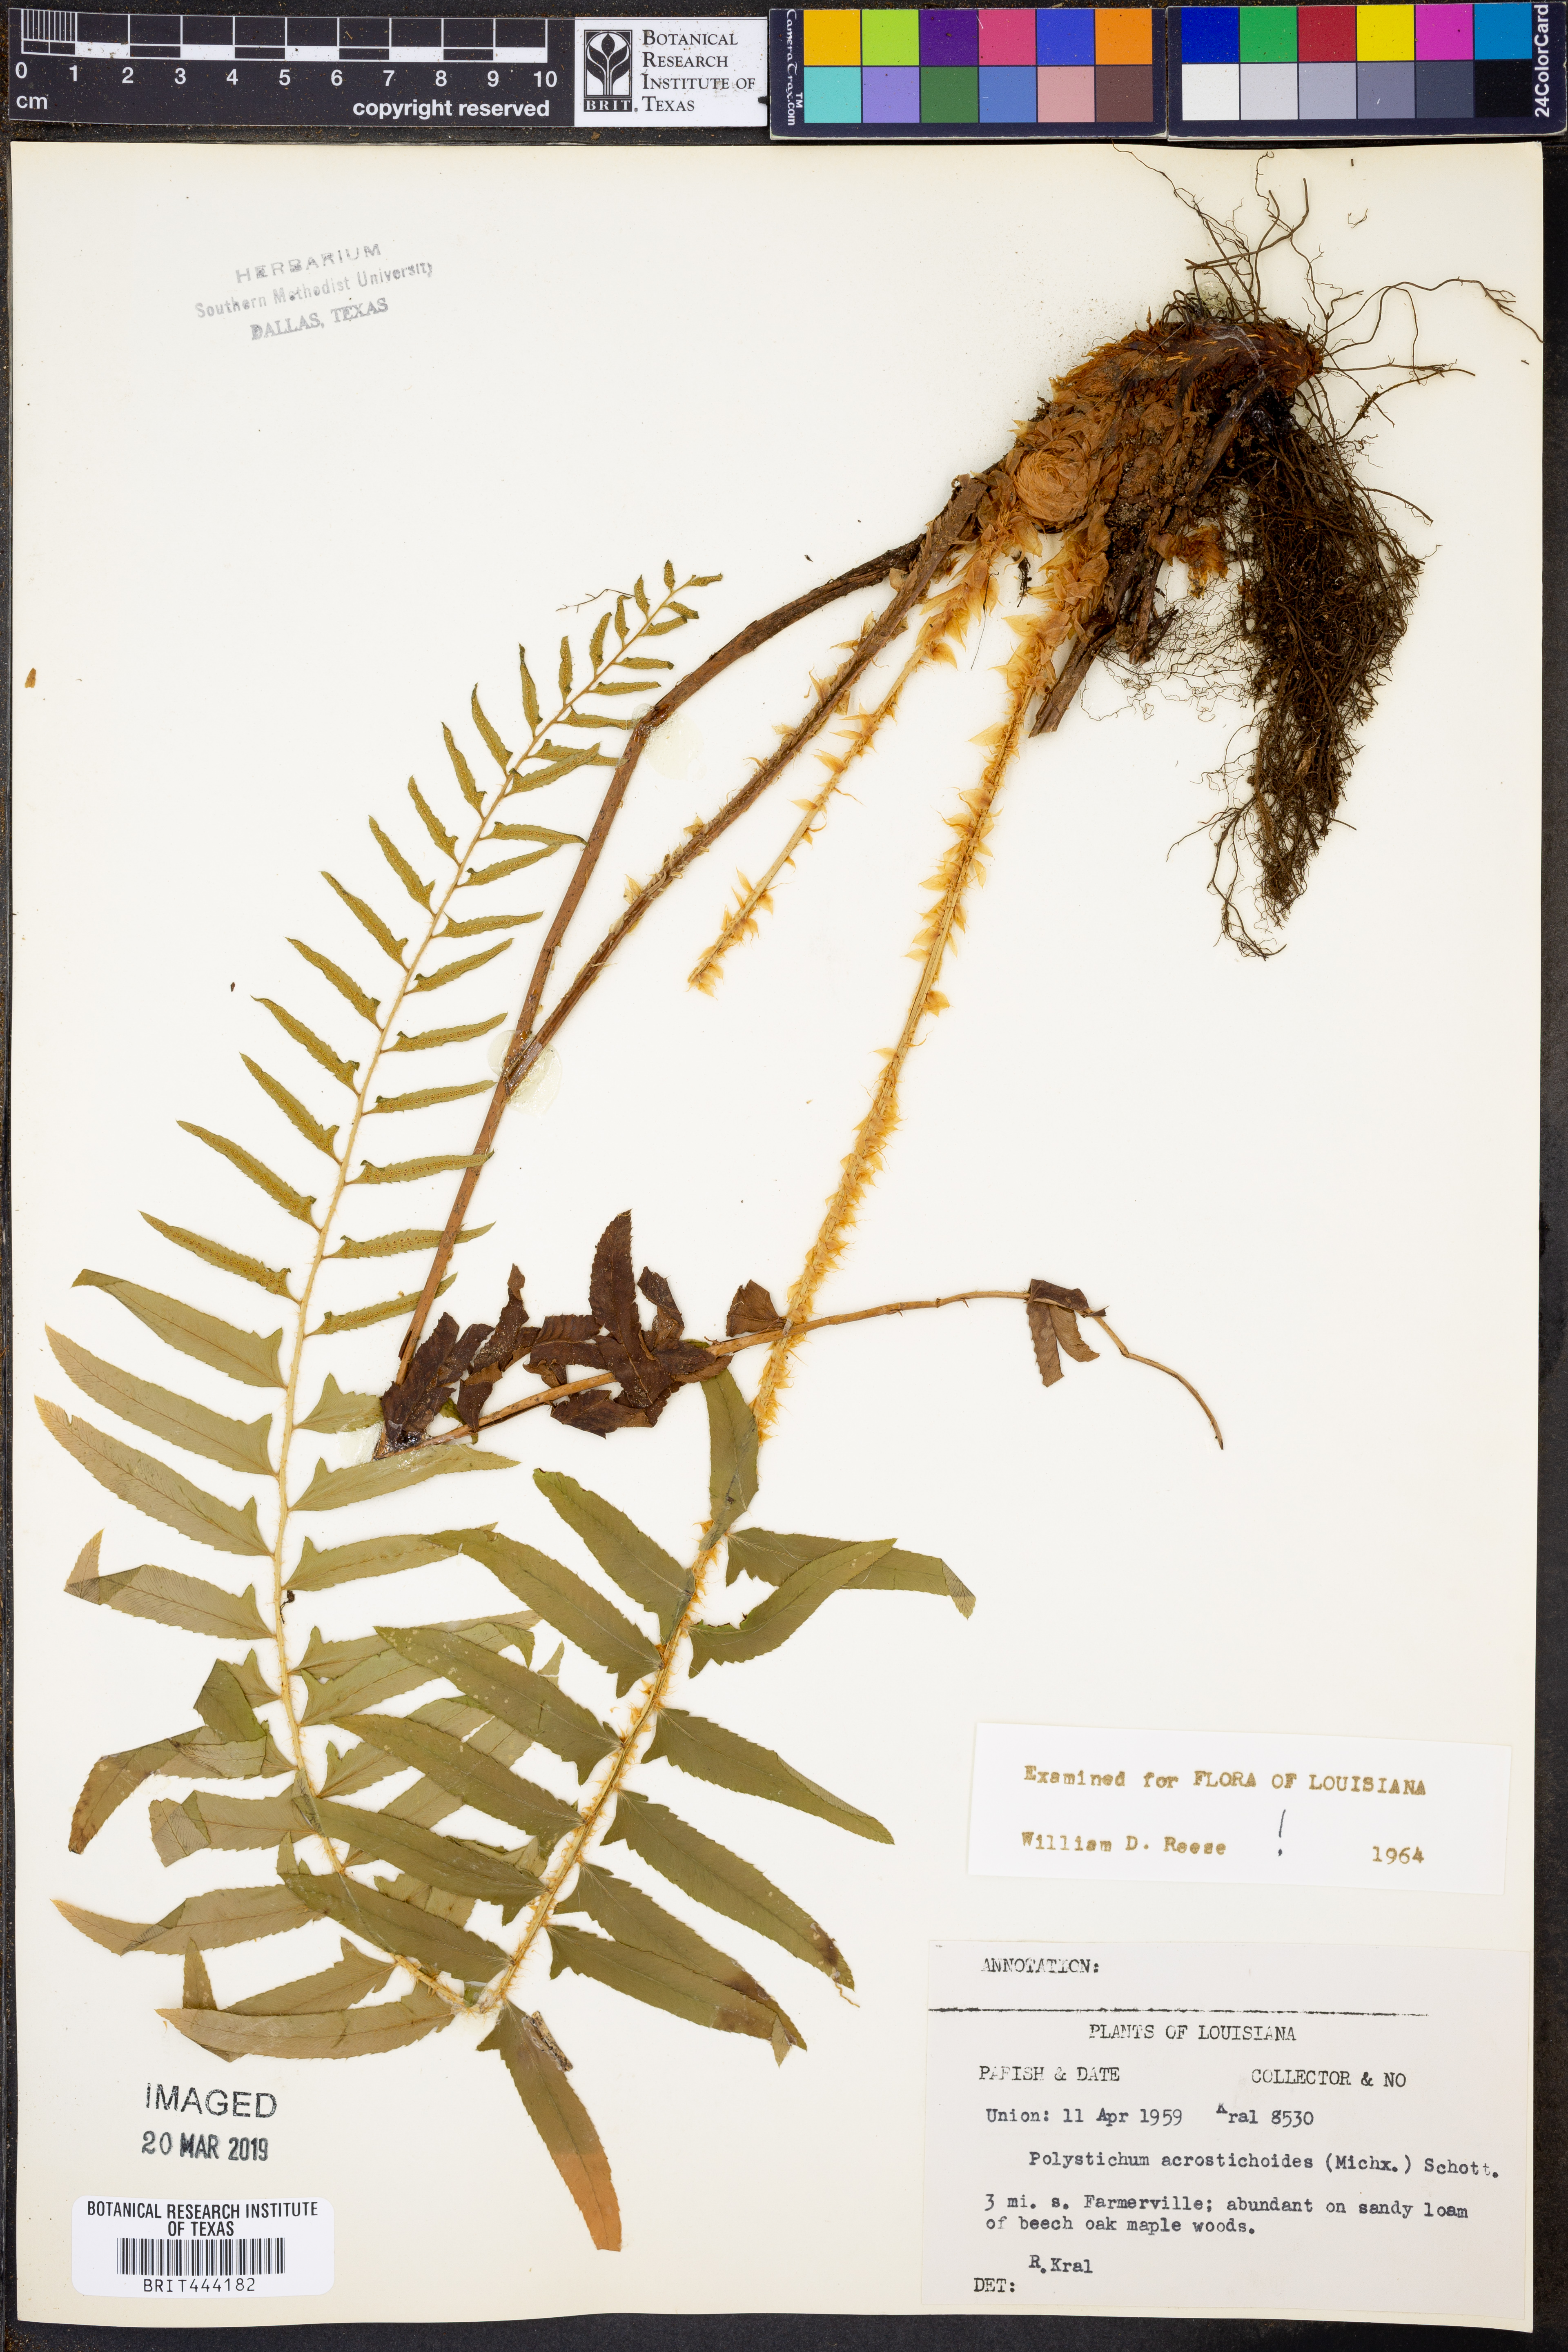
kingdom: Plantae
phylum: Tracheophyta
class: Polypodiopsida
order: Polypodiales
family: Dryopteridaceae
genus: Polystichum
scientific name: Polystichum acrostichoides
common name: Christmas fern
